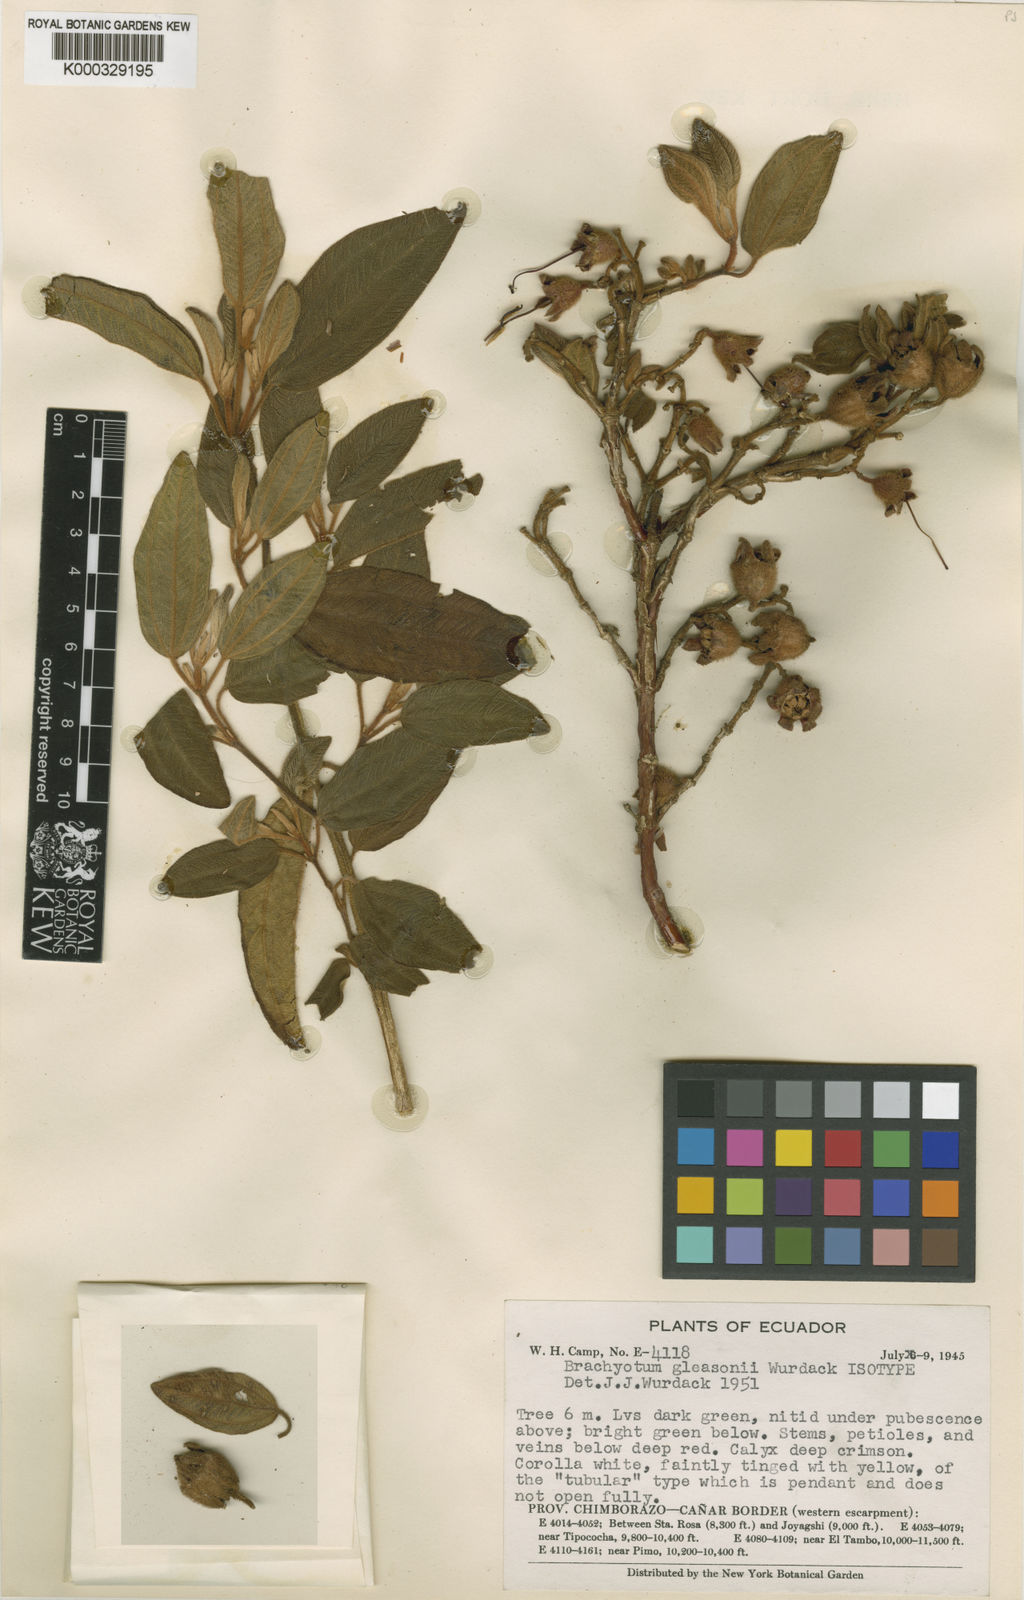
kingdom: Plantae
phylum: Tracheophyta
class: Magnoliopsida
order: Myrtales
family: Melastomataceae
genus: Brachyotum
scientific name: Brachyotum gleasonii
